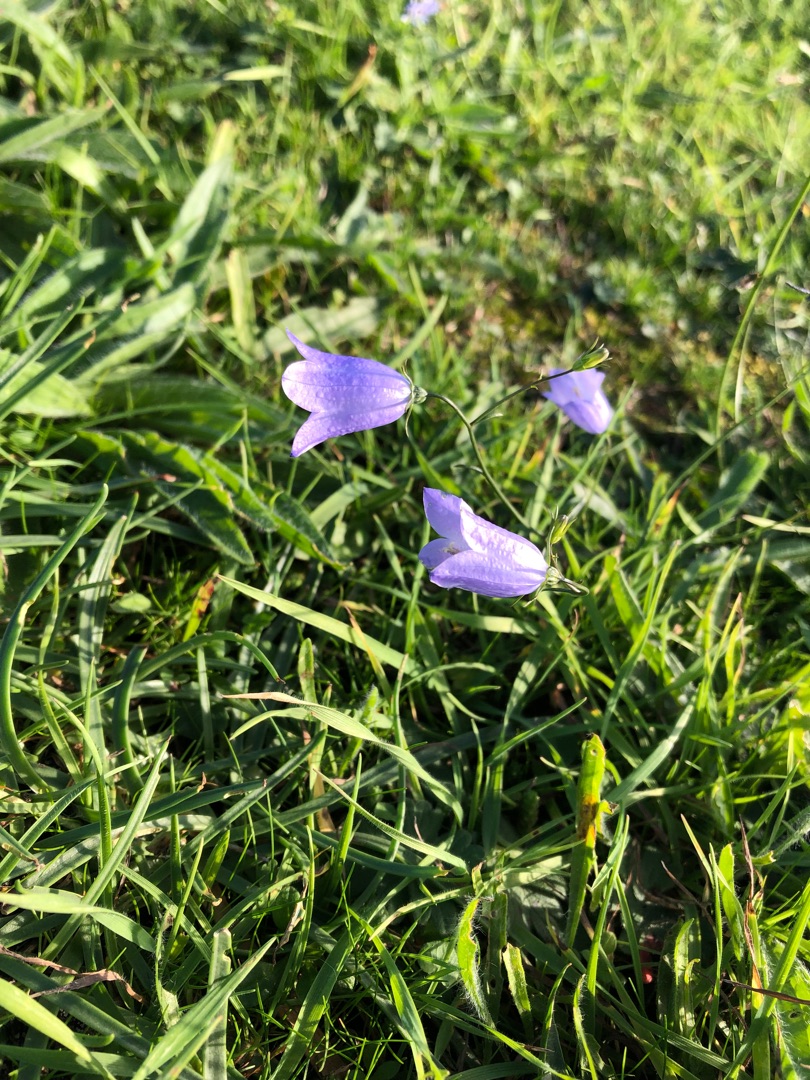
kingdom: Plantae
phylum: Tracheophyta
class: Magnoliopsida
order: Asterales
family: Campanulaceae
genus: Campanula
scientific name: Campanula rotundifolia
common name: Liden klokke
